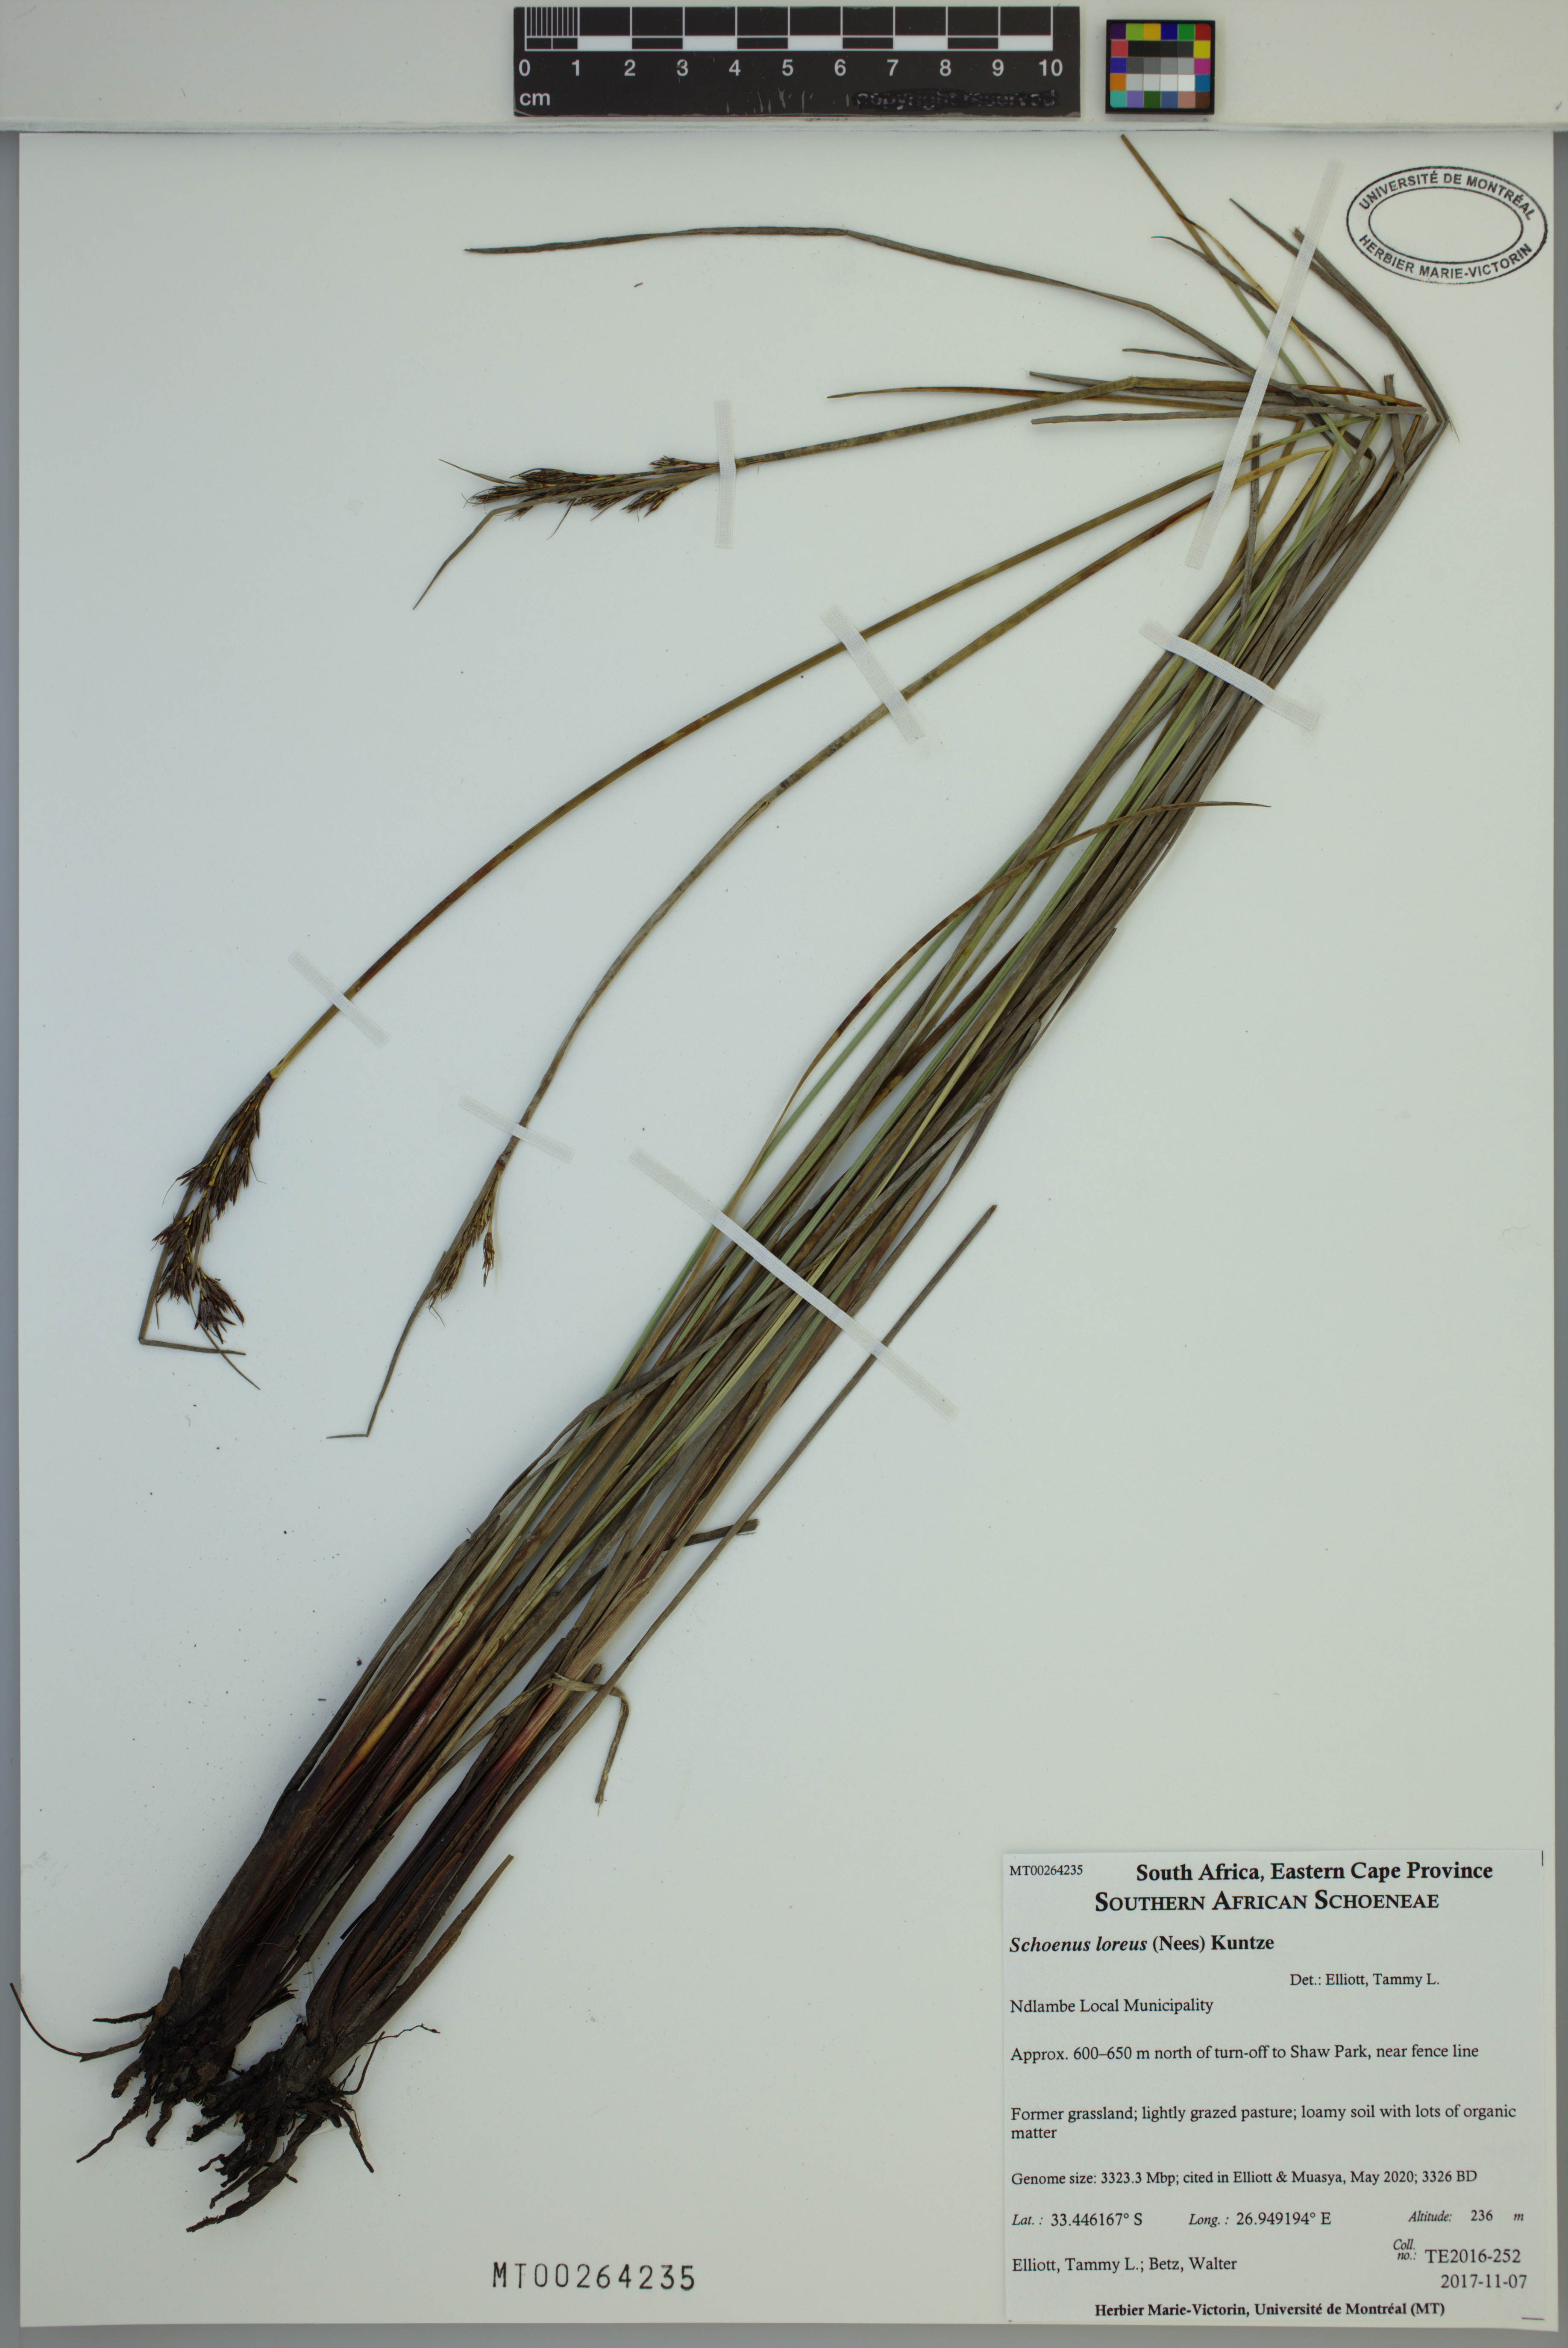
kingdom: Plantae
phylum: Tracheophyta
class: Liliopsida
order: Poales
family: Cyperaceae
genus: Schoenus
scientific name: Schoenus loreus
